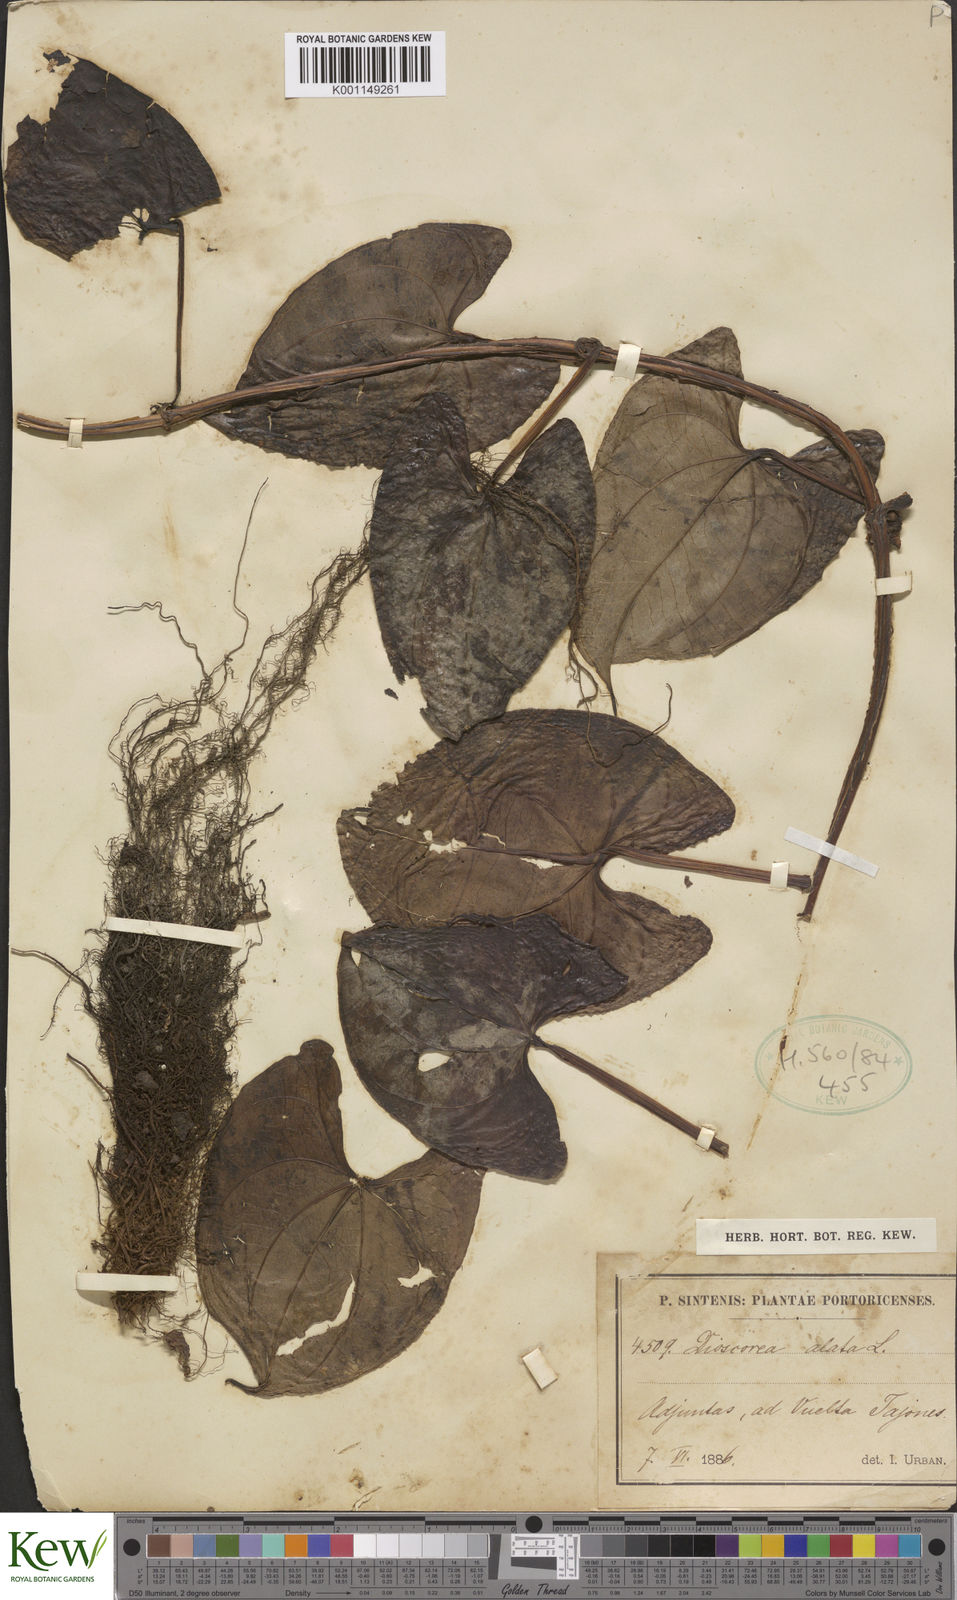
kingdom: Plantae
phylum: Tracheophyta
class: Liliopsida
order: Dioscoreales
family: Dioscoreaceae
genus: Dioscorea
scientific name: Dioscorea alata
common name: Water yam
